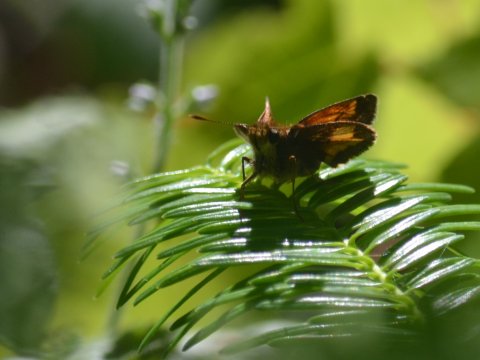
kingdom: Animalia
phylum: Arthropoda
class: Insecta
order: Lepidoptera
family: Hesperiidae
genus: Lon
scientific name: Lon hobomok
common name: Hobomok Skipper
